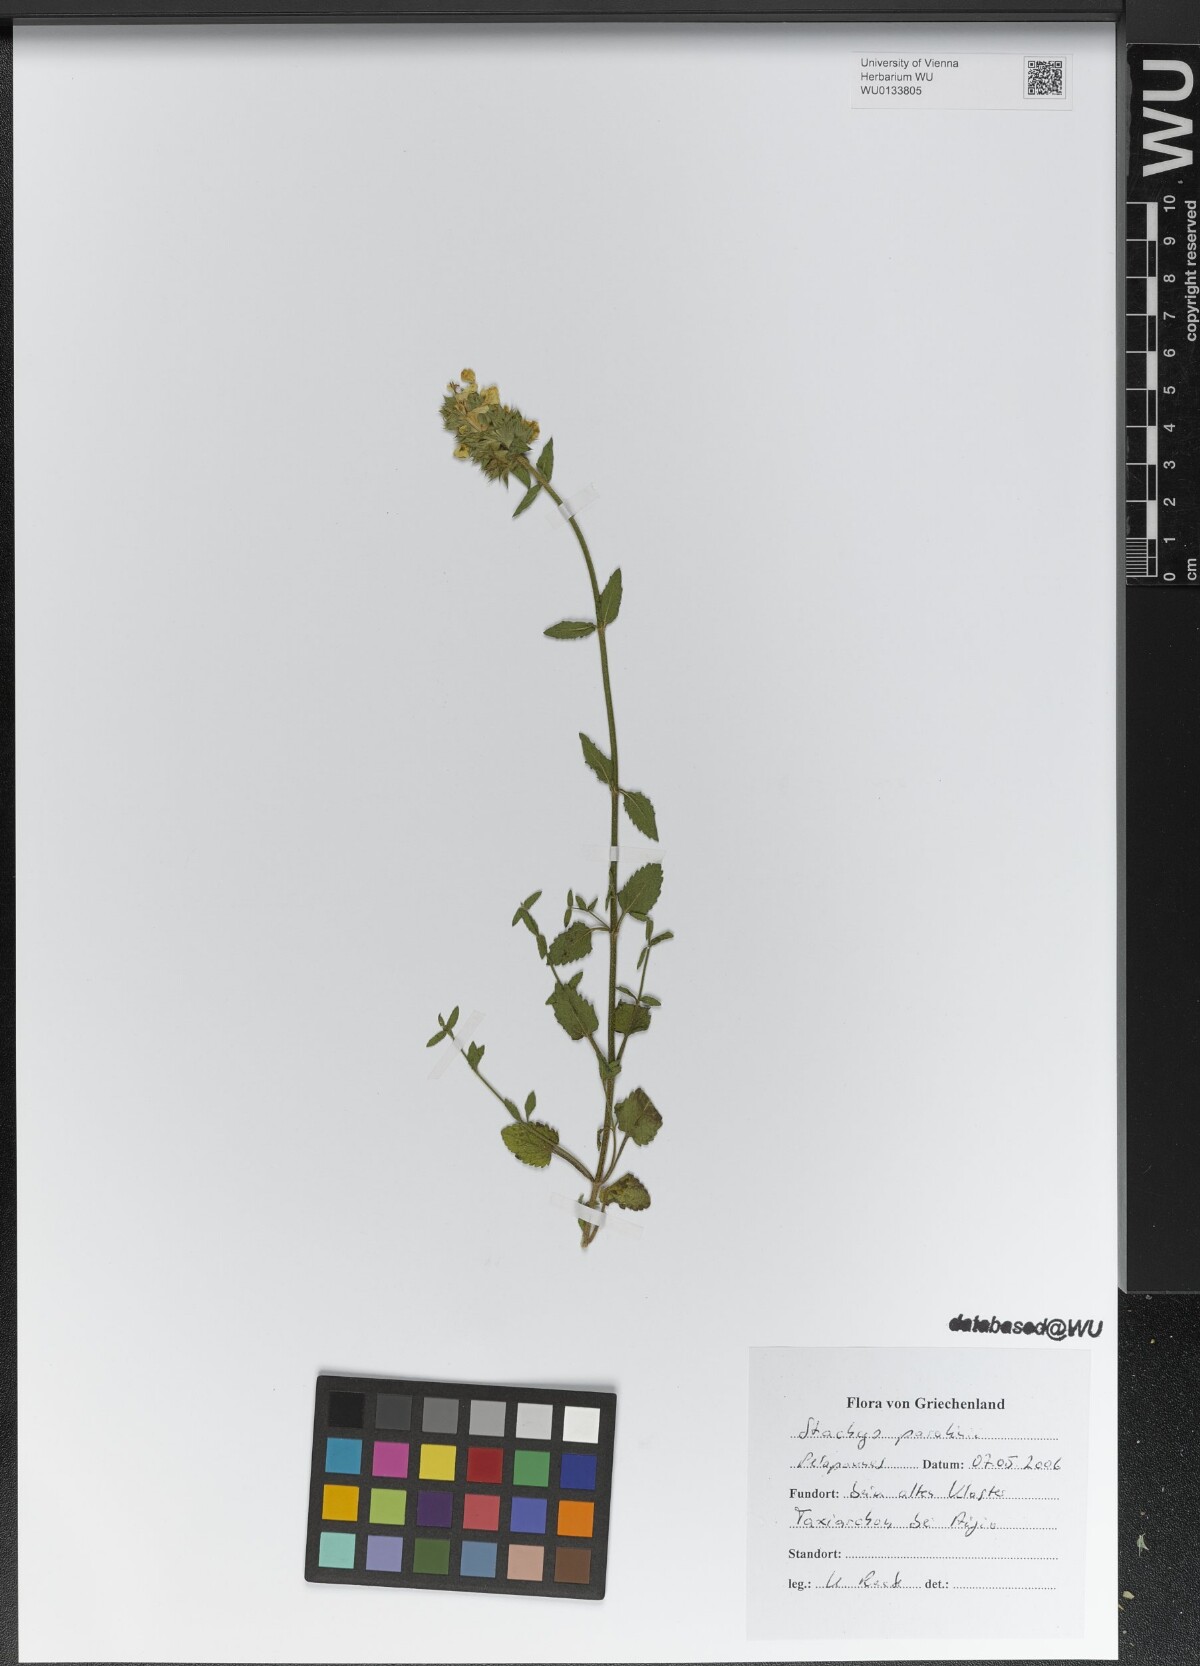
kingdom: Plantae
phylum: Tracheophyta
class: Magnoliopsida
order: Lamiales
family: Lamiaceae
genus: Stachys
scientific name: Stachys parolinii
